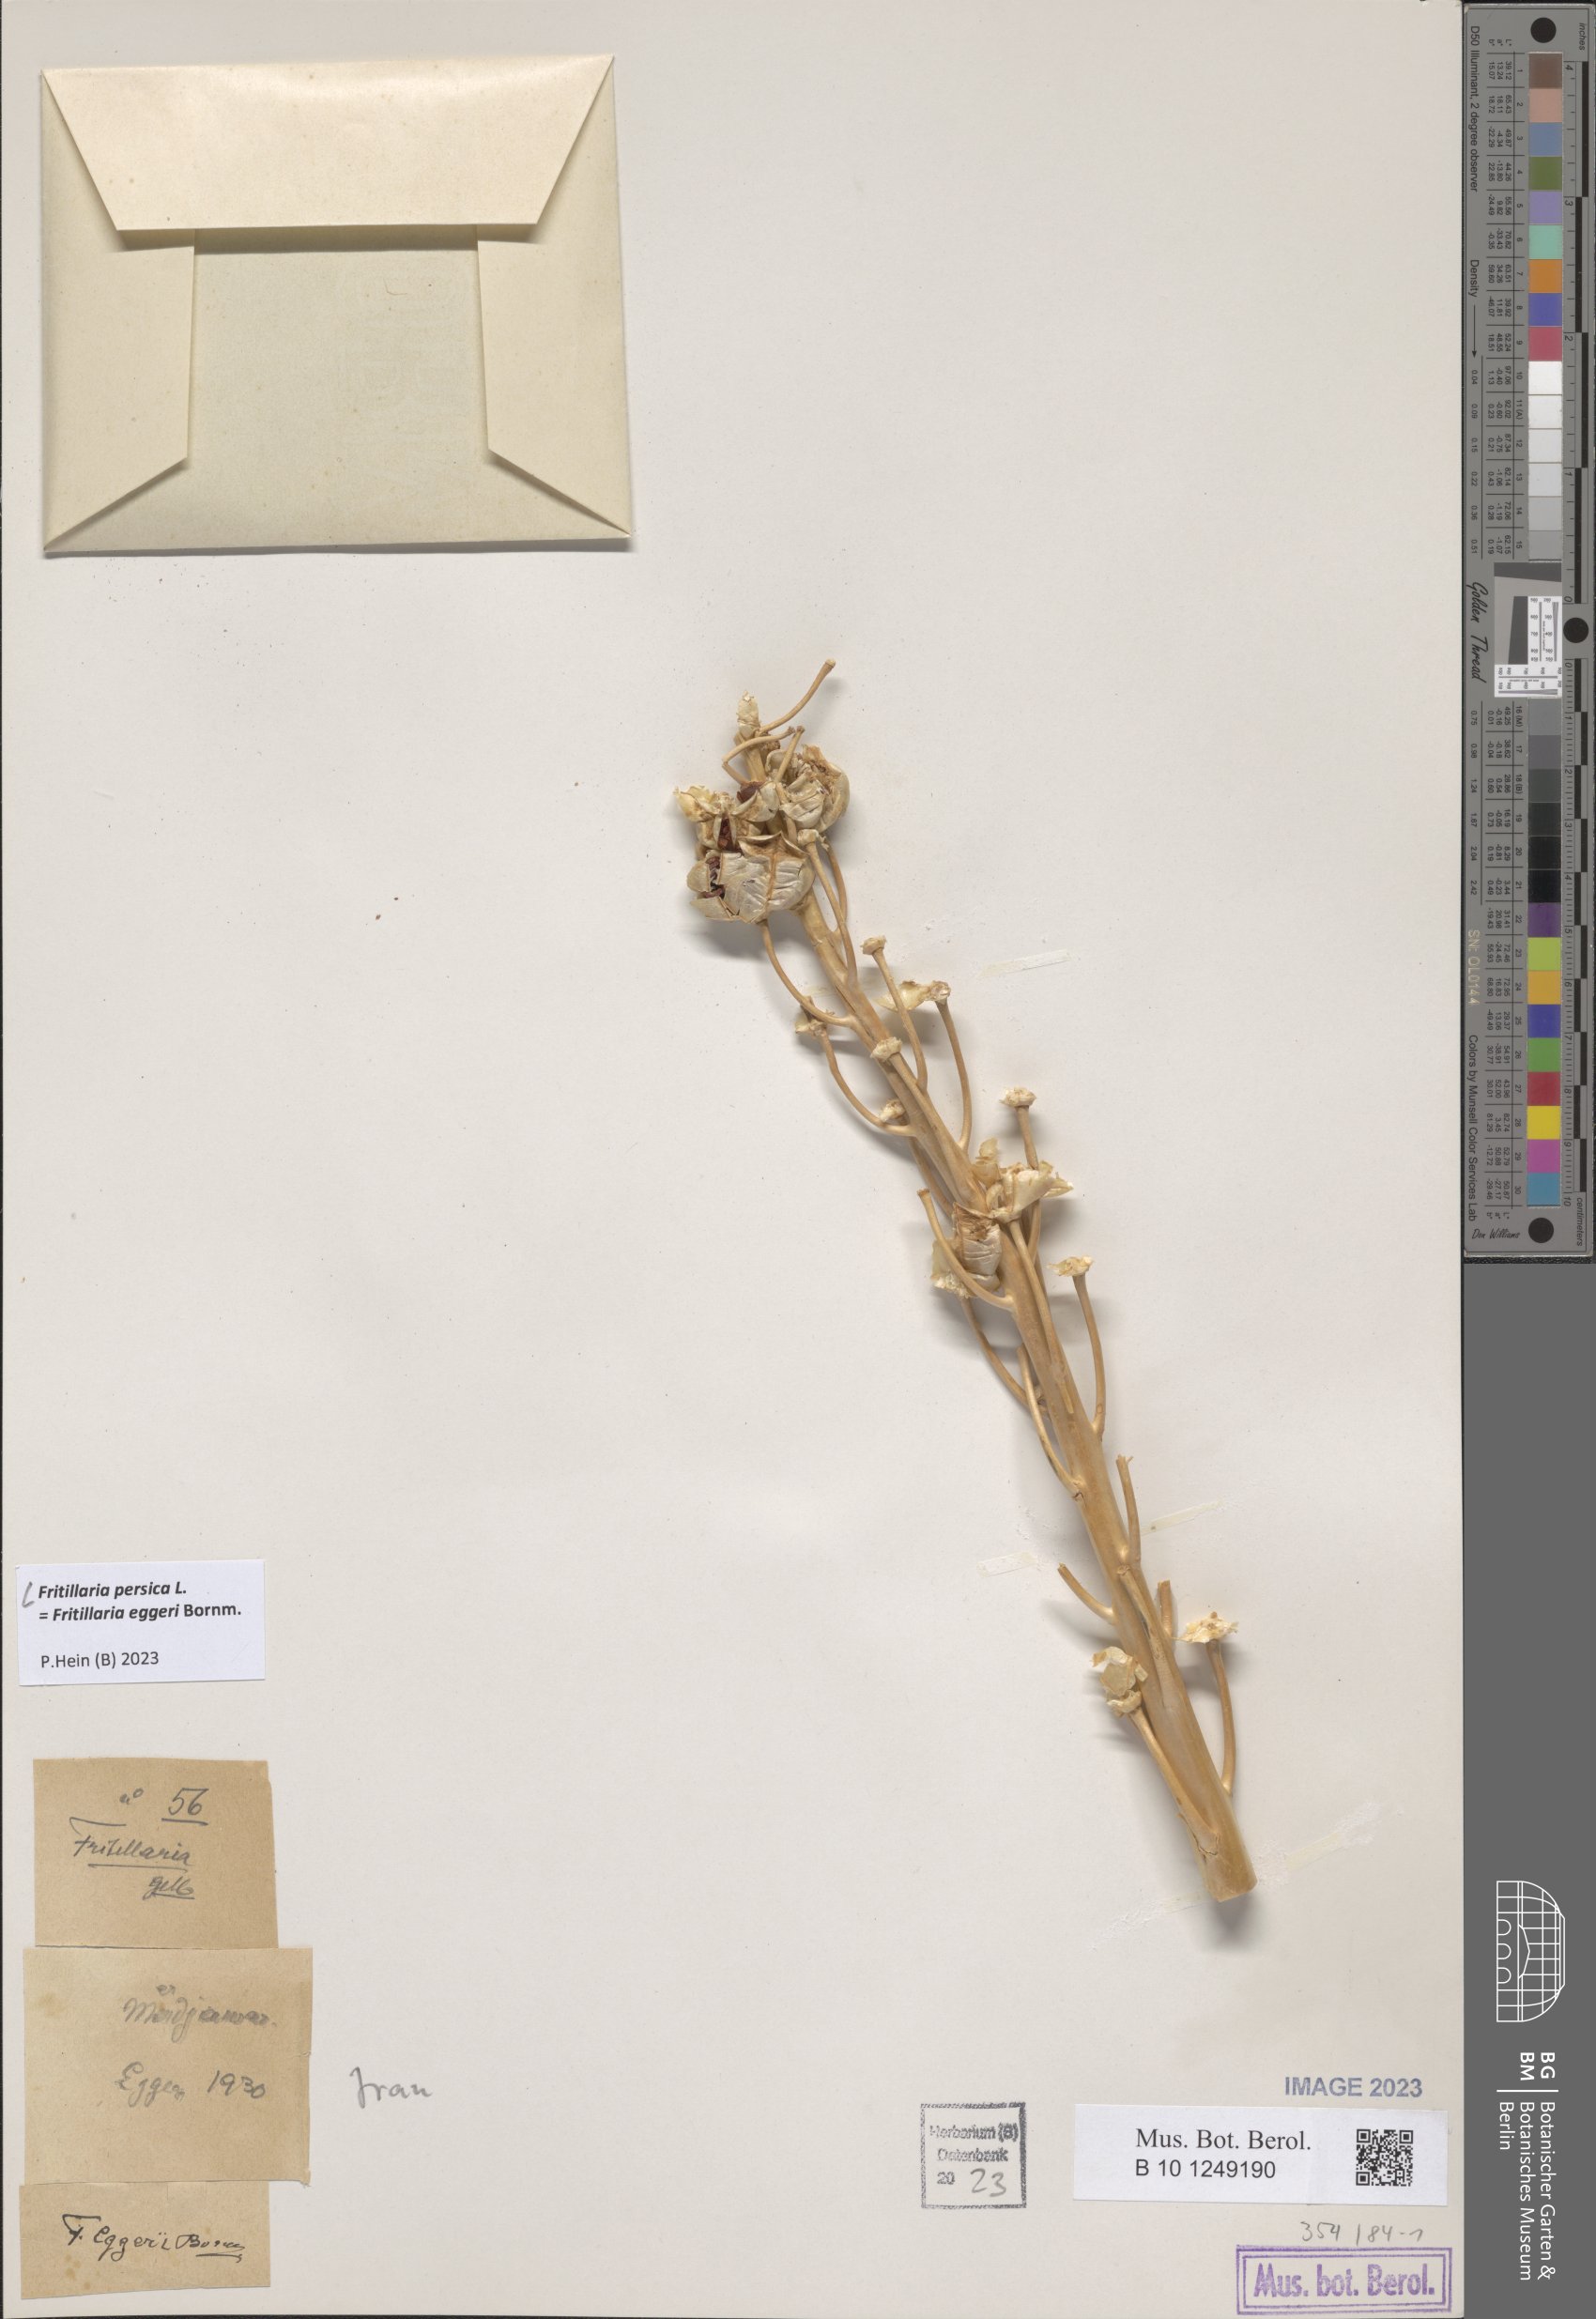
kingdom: Plantae
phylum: Tracheophyta
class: Liliopsida
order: Liliales
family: Liliaceae
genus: Fritillaria
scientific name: Fritillaria persica
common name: Persian fritillary
